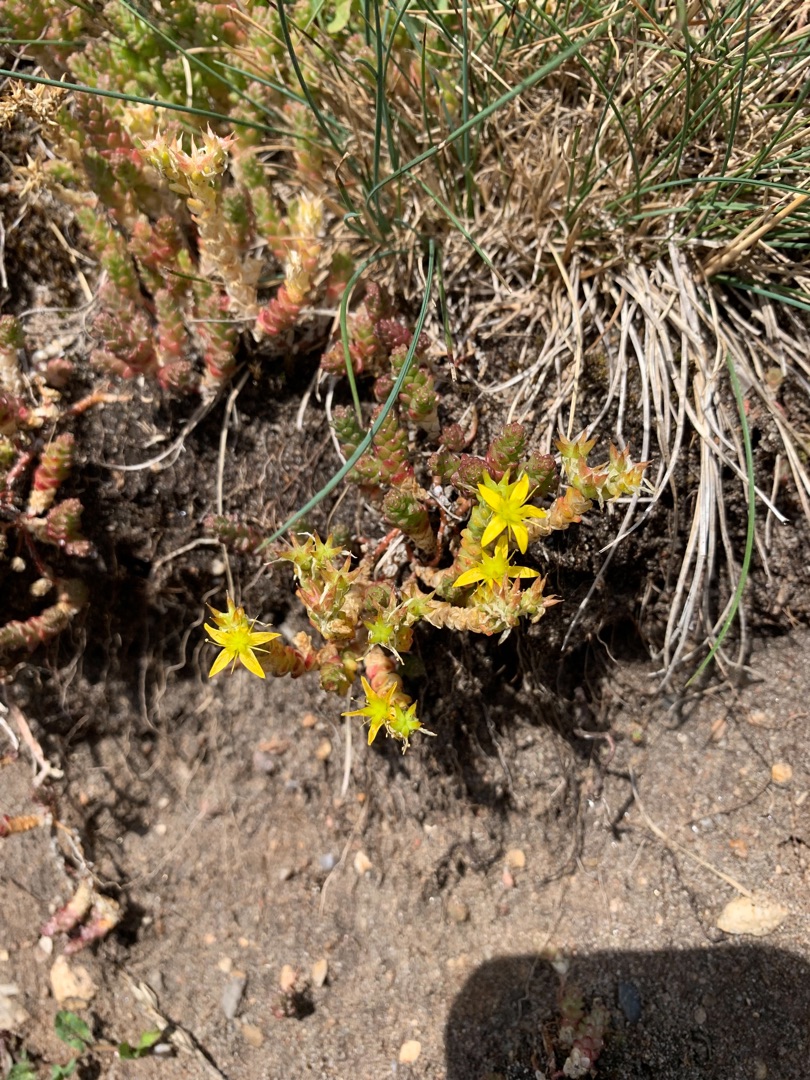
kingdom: Plantae
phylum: Tracheophyta
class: Magnoliopsida
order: Saxifragales
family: Crassulaceae
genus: Sedum
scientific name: Sedum acre
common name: Bidende stenurt
